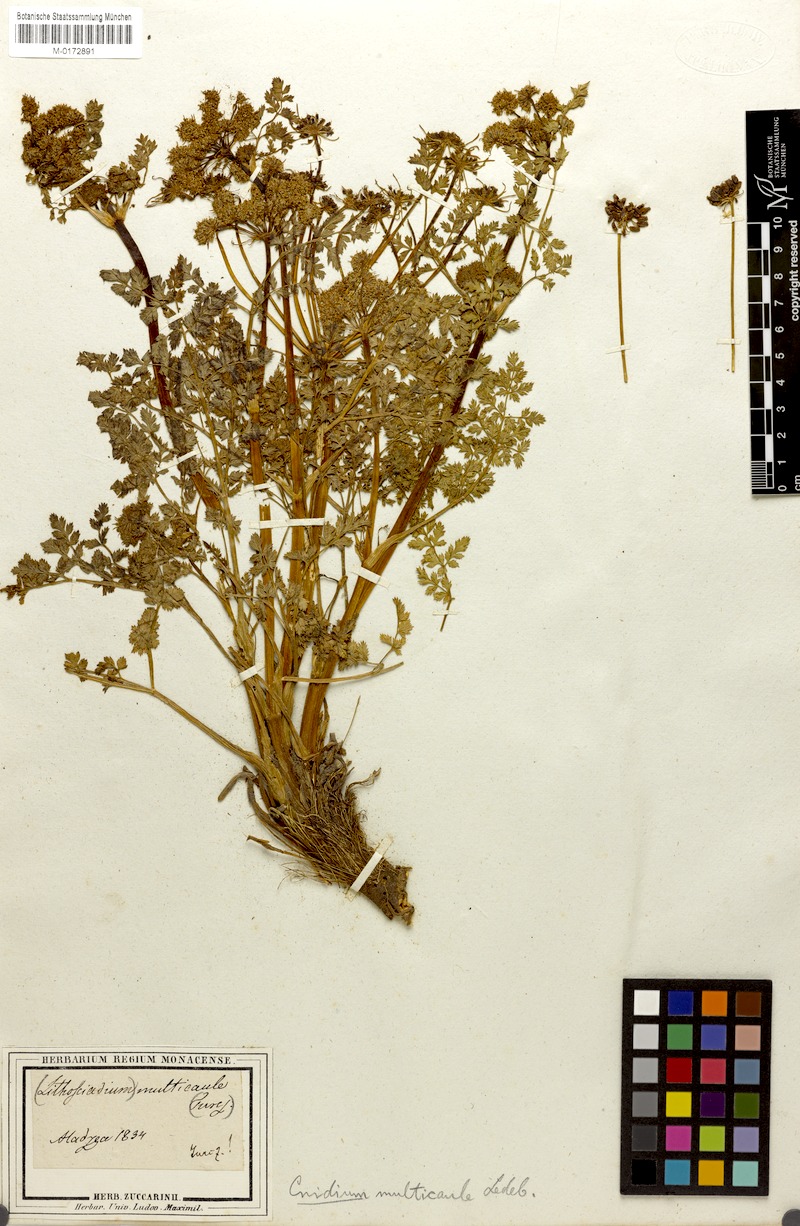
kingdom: Plantae
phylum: Tracheophyta
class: Magnoliopsida
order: Apiales
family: Apiaceae
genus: Lithosciadium
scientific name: Lithosciadium multicaule
